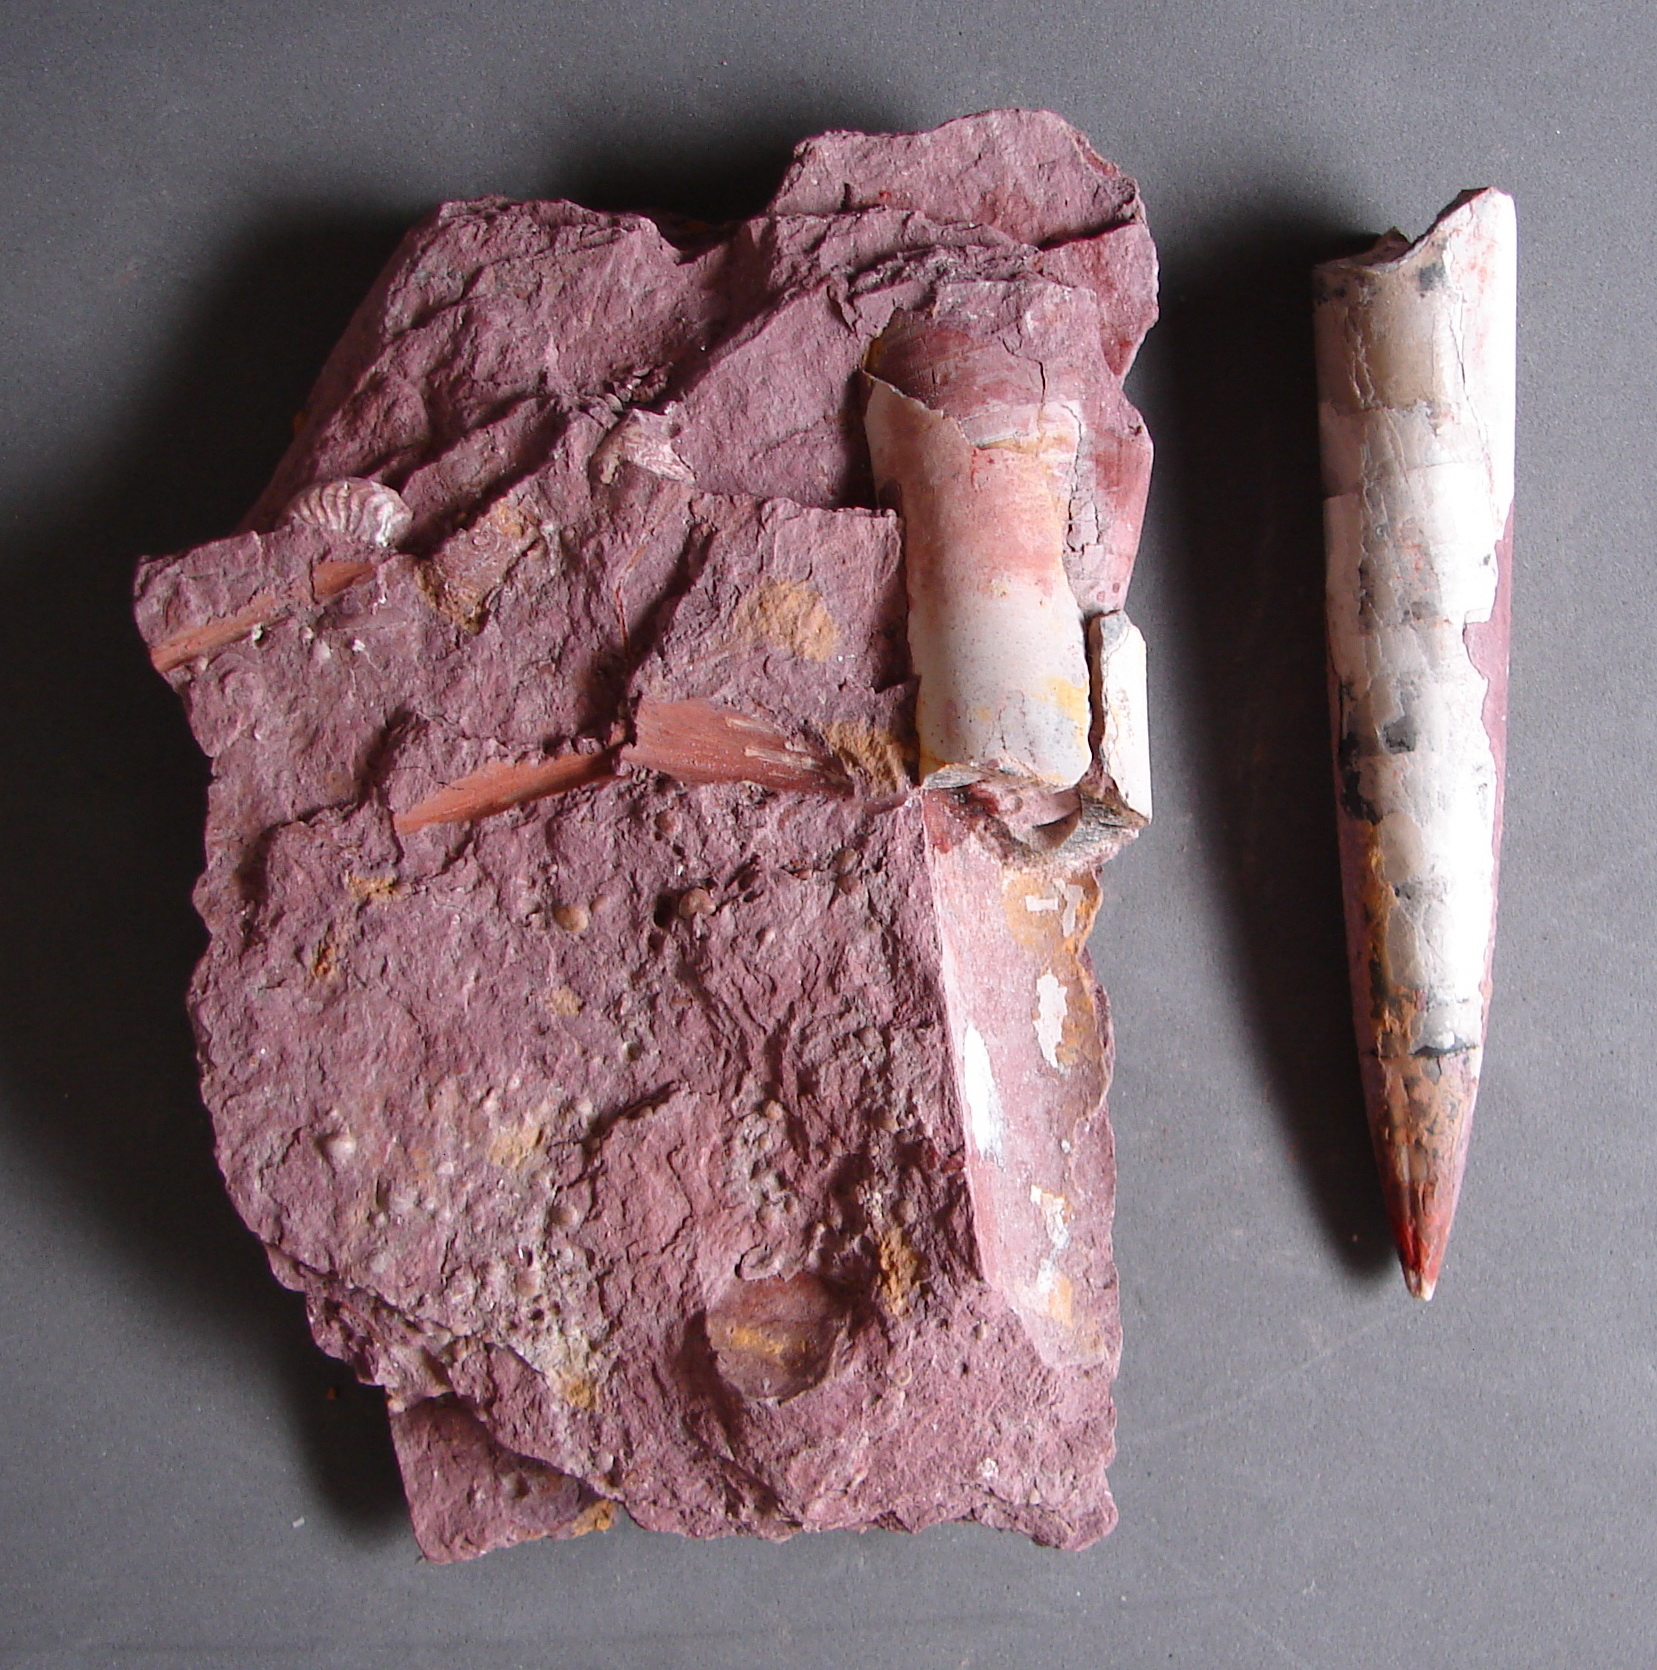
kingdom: Animalia
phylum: Mollusca
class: Cephalopoda
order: Belemnitida
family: Megateuthididae
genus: Acrocoelites
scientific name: Acrocoelites
